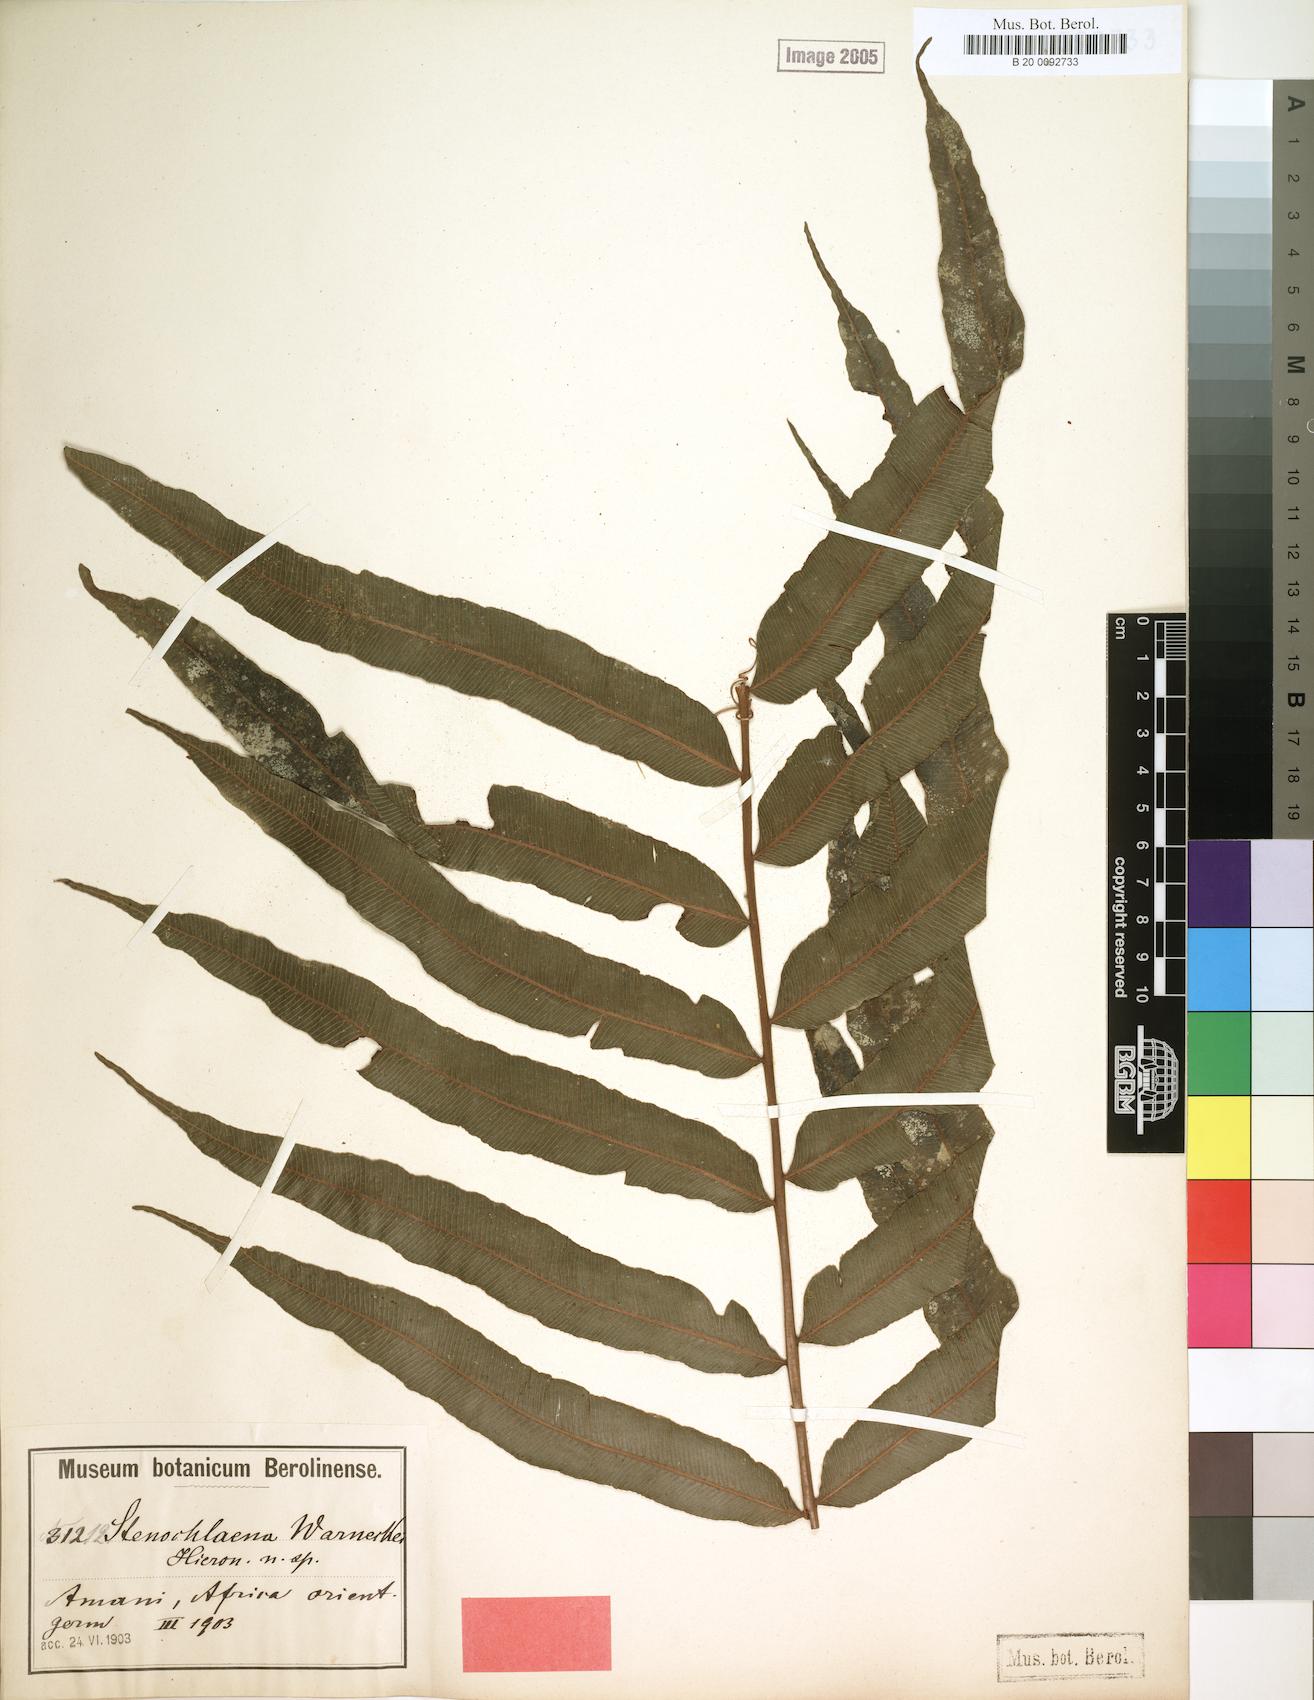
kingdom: Plantae
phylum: Tracheophyta
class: Polypodiopsida
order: Polypodiales
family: Lomariopsidaceae
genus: Lomariopsis
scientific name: Lomariopsis warneckei
